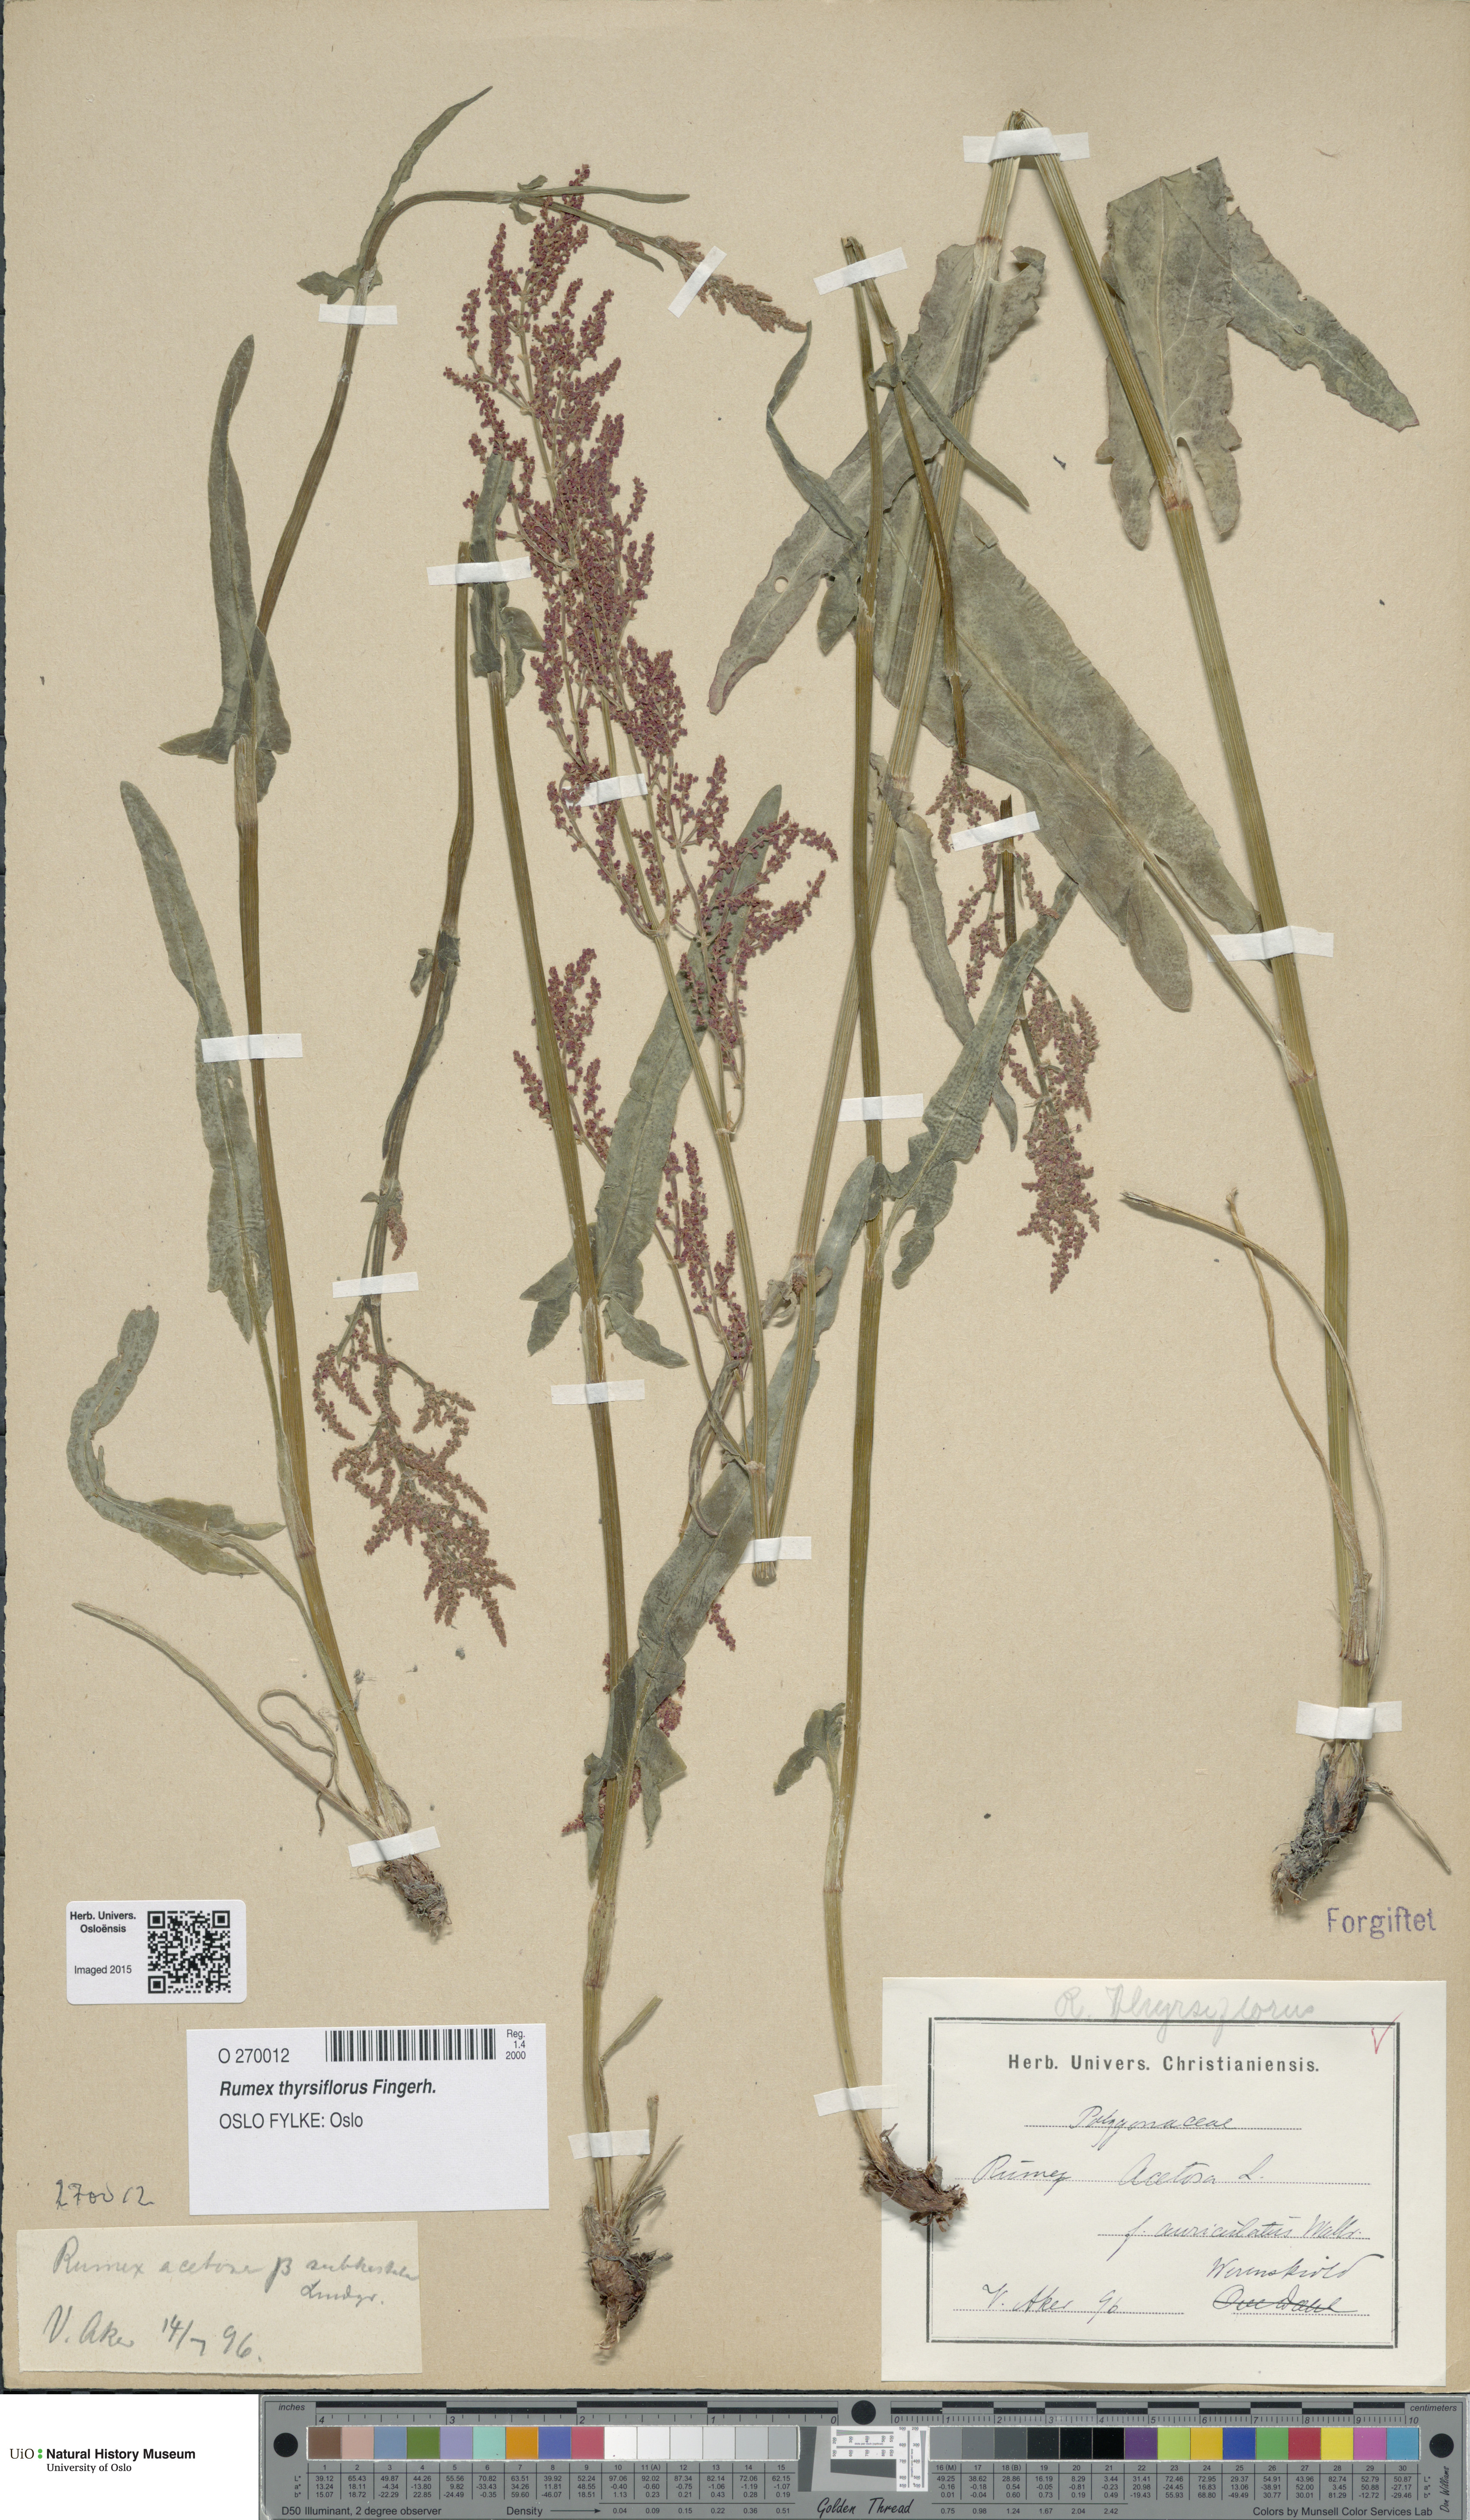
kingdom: Plantae
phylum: Tracheophyta
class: Magnoliopsida
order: Caryophyllales
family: Polygonaceae
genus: Rumex
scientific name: Rumex thyrsiflorus
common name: Garden sorrel
